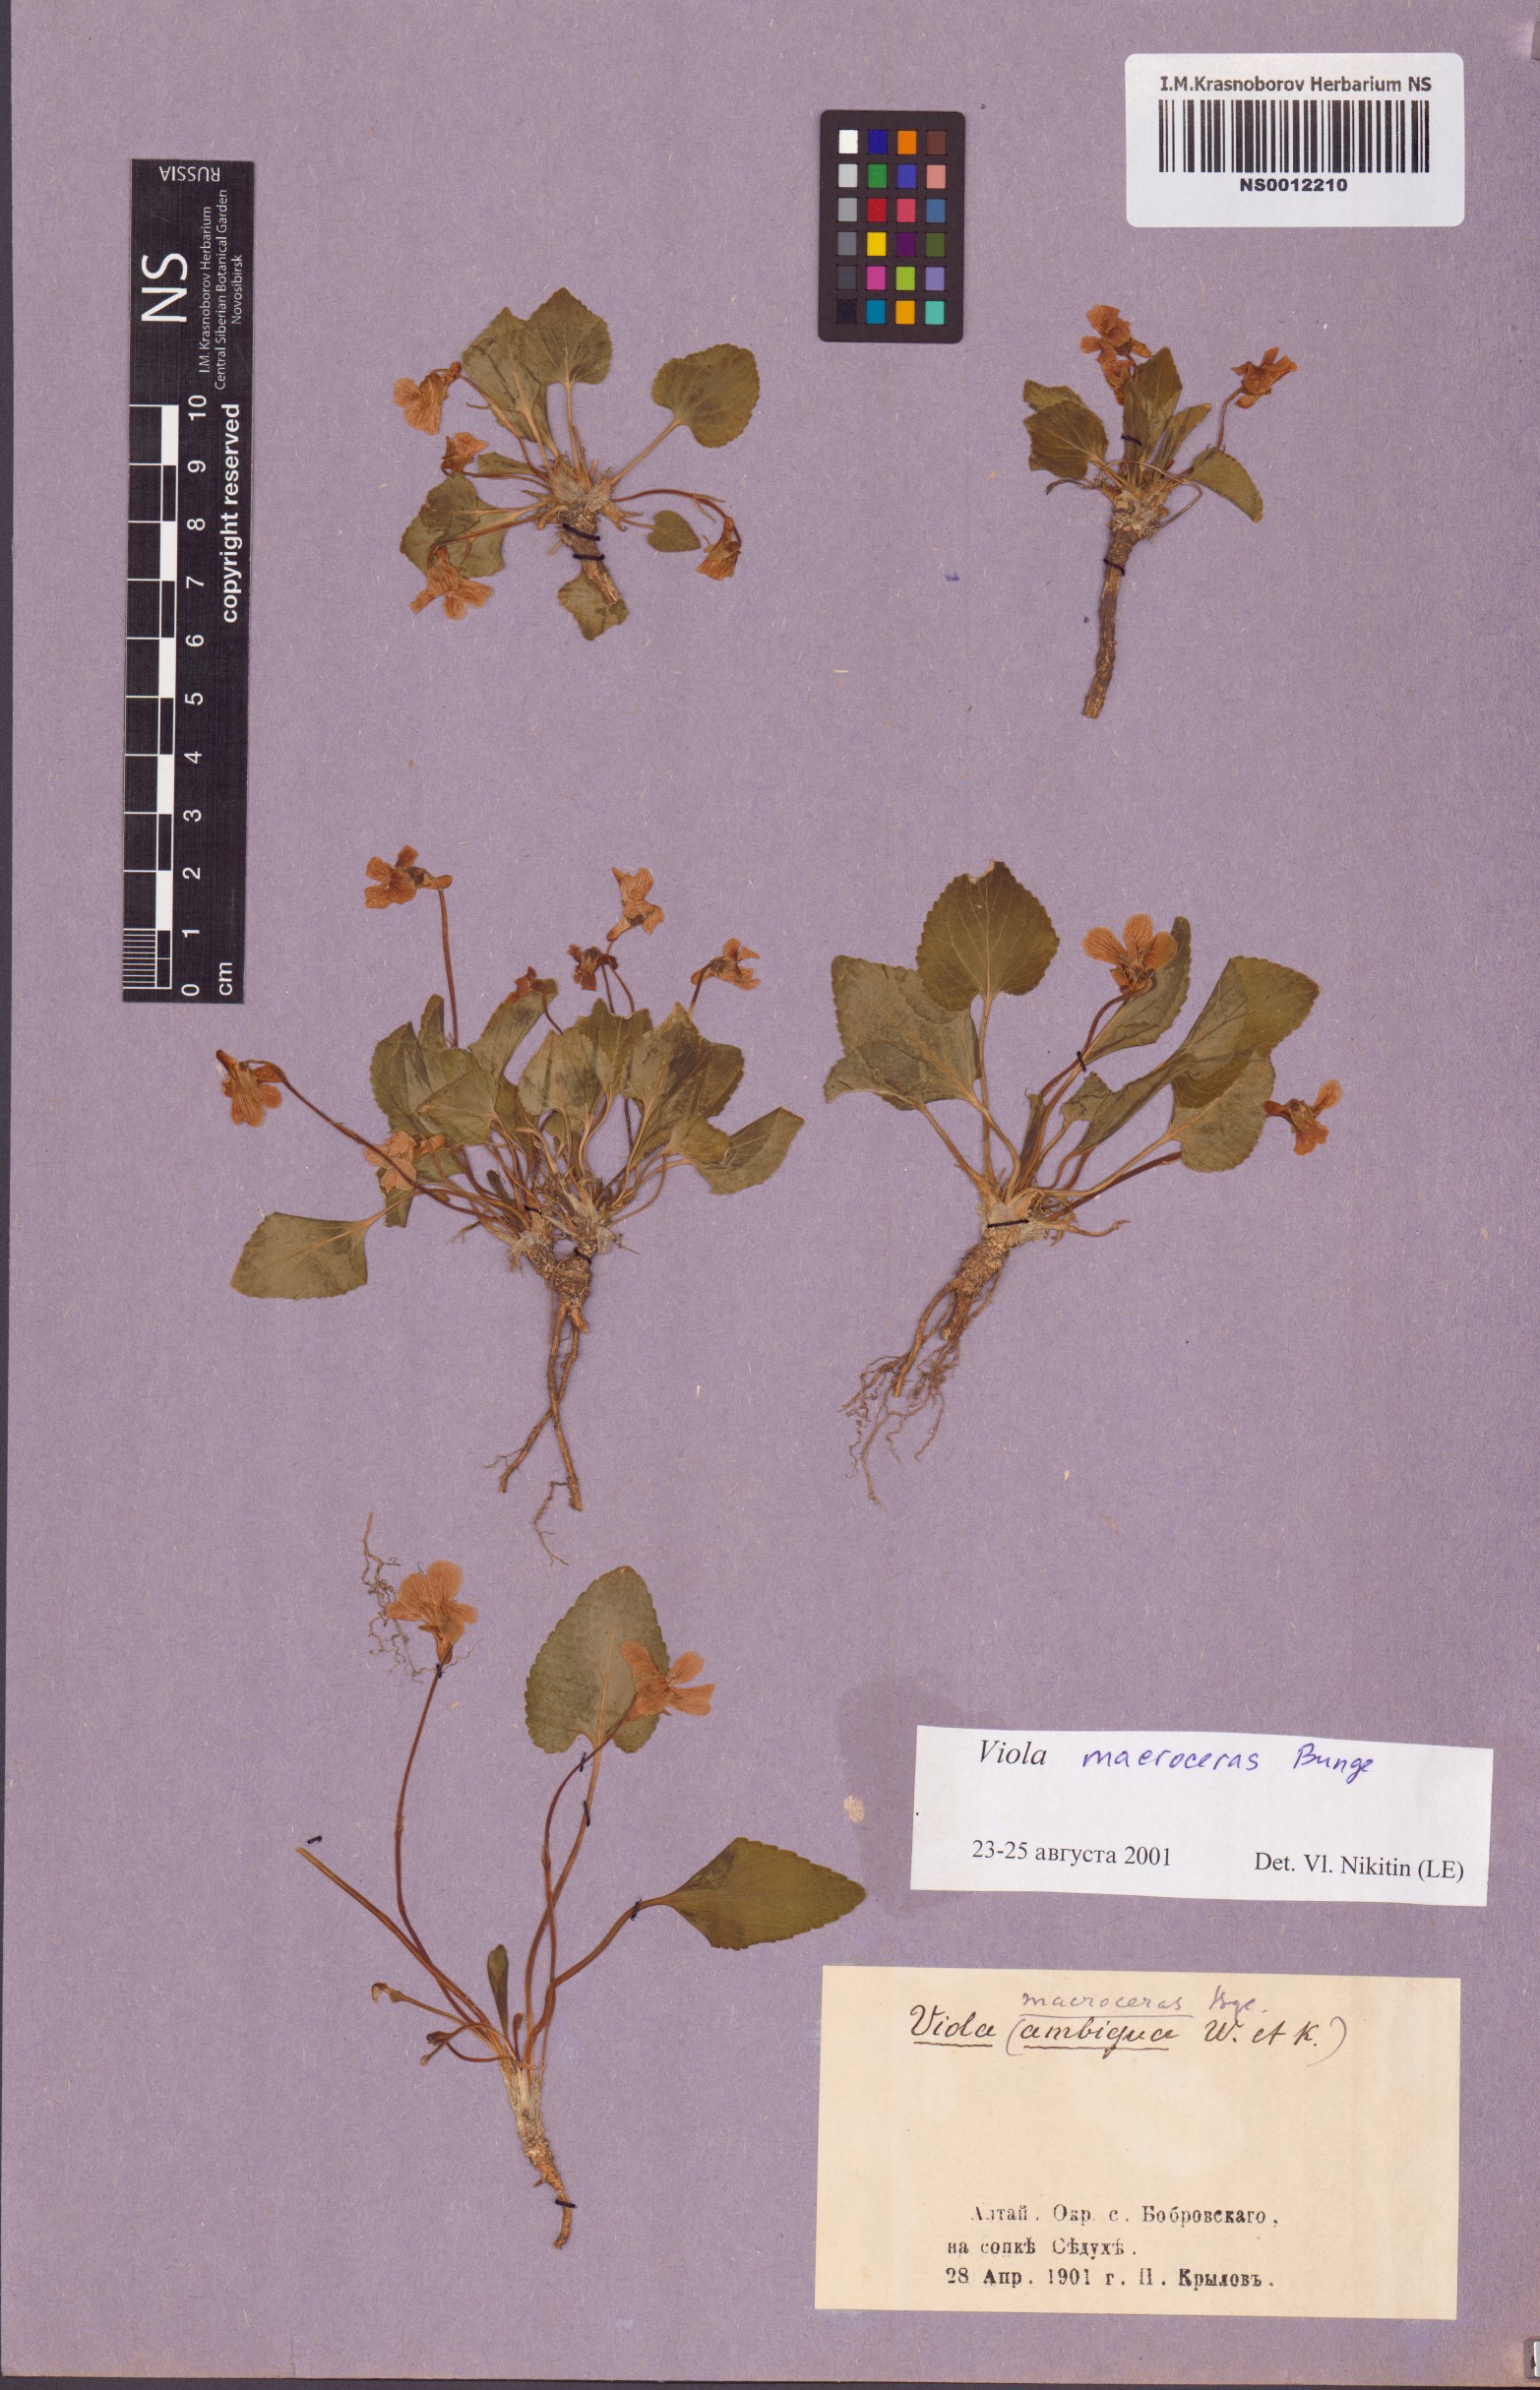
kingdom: Plantae
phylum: Tracheophyta
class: Magnoliopsida
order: Malpighiales
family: Violaceae
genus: Viola
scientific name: Viola macroceras
